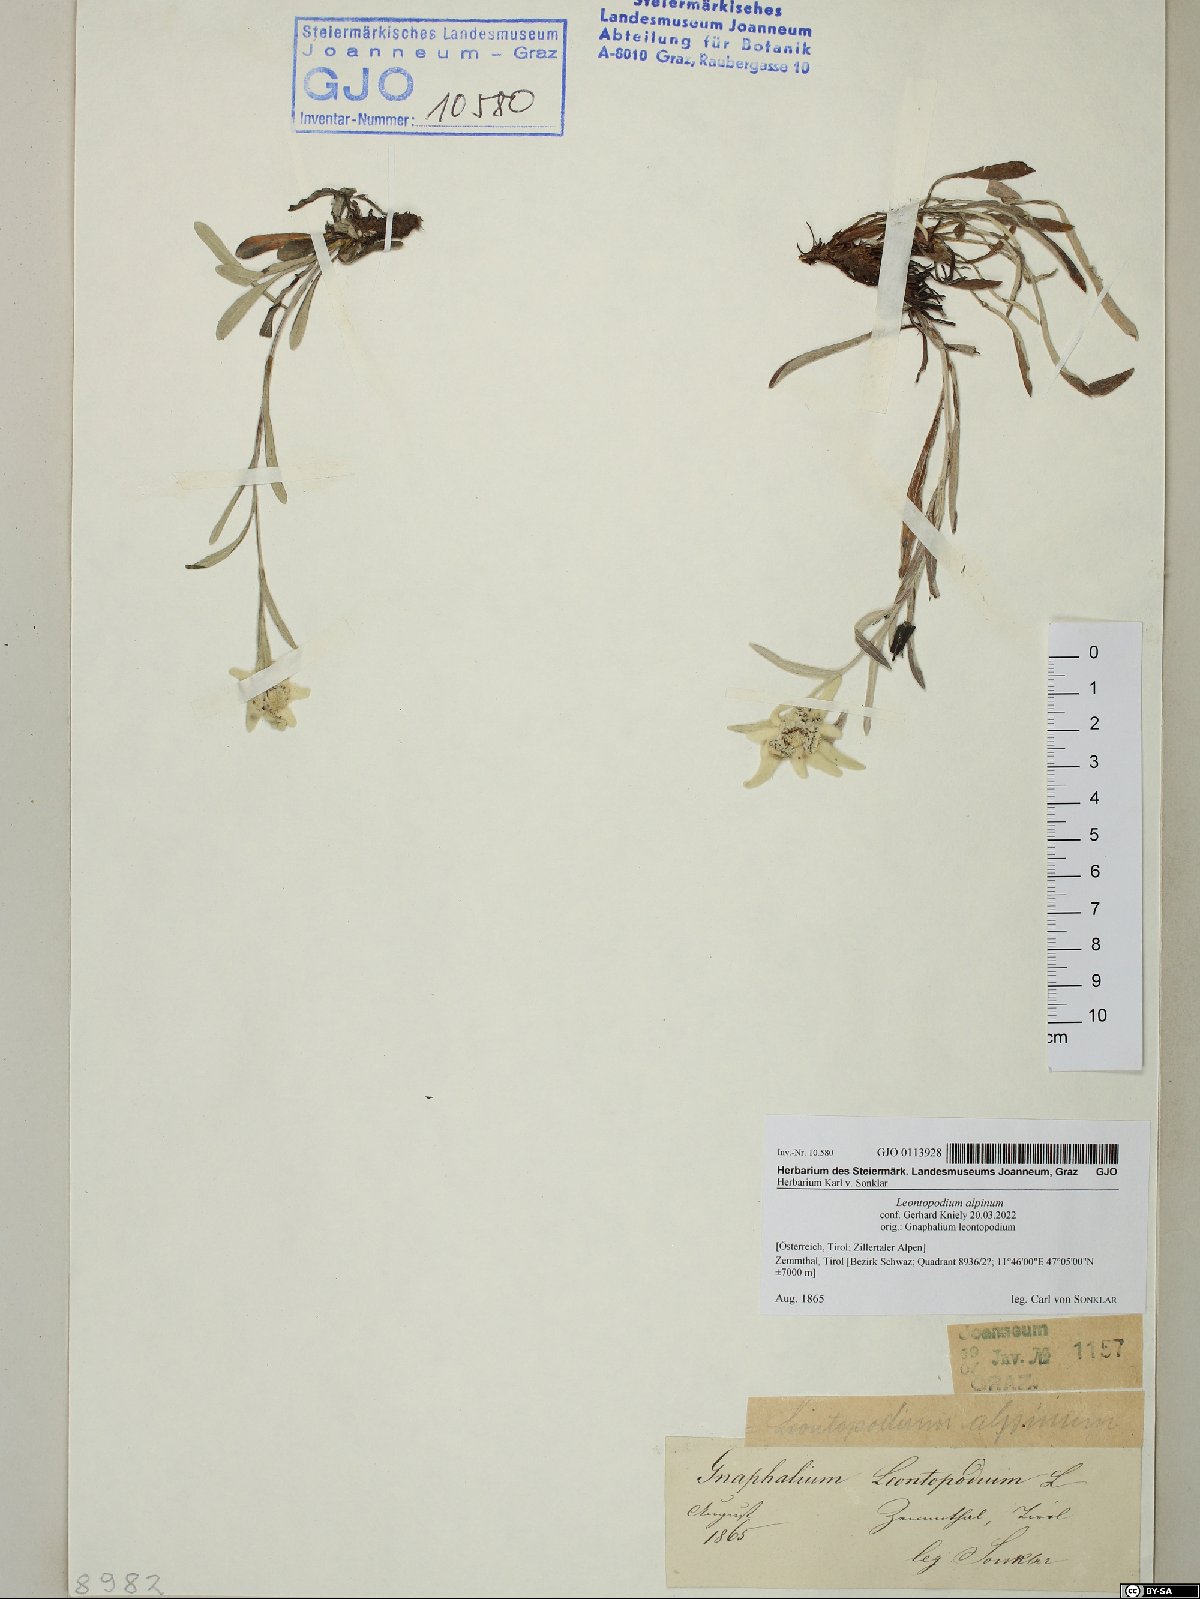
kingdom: Plantae
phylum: Tracheophyta
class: Magnoliopsida
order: Asterales
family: Asteraceae
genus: Leontopodium
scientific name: Leontopodium nivale
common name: Edelweiss
